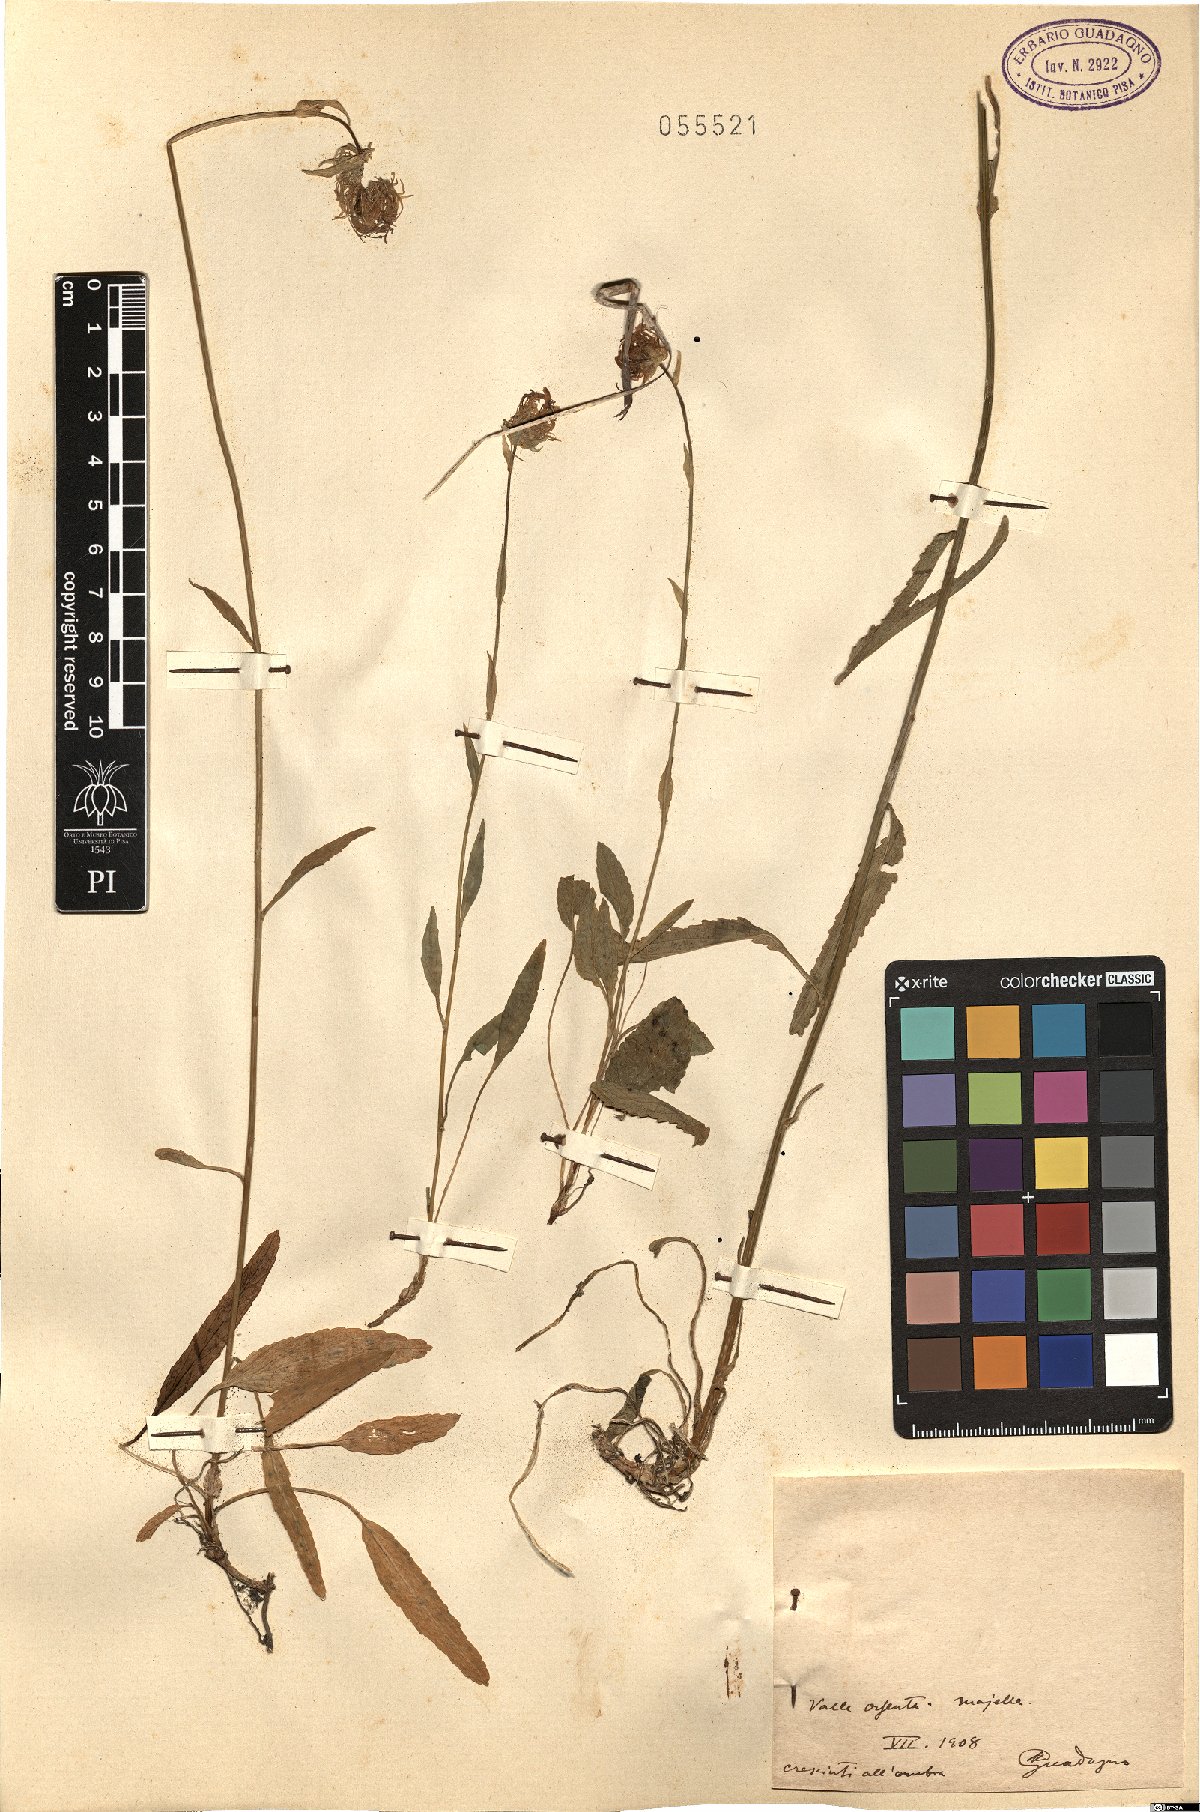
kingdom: Plantae
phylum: Tracheophyta
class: Magnoliopsida
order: Asterales
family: Campanulaceae
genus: Phyteuma
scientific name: Phyteuma
